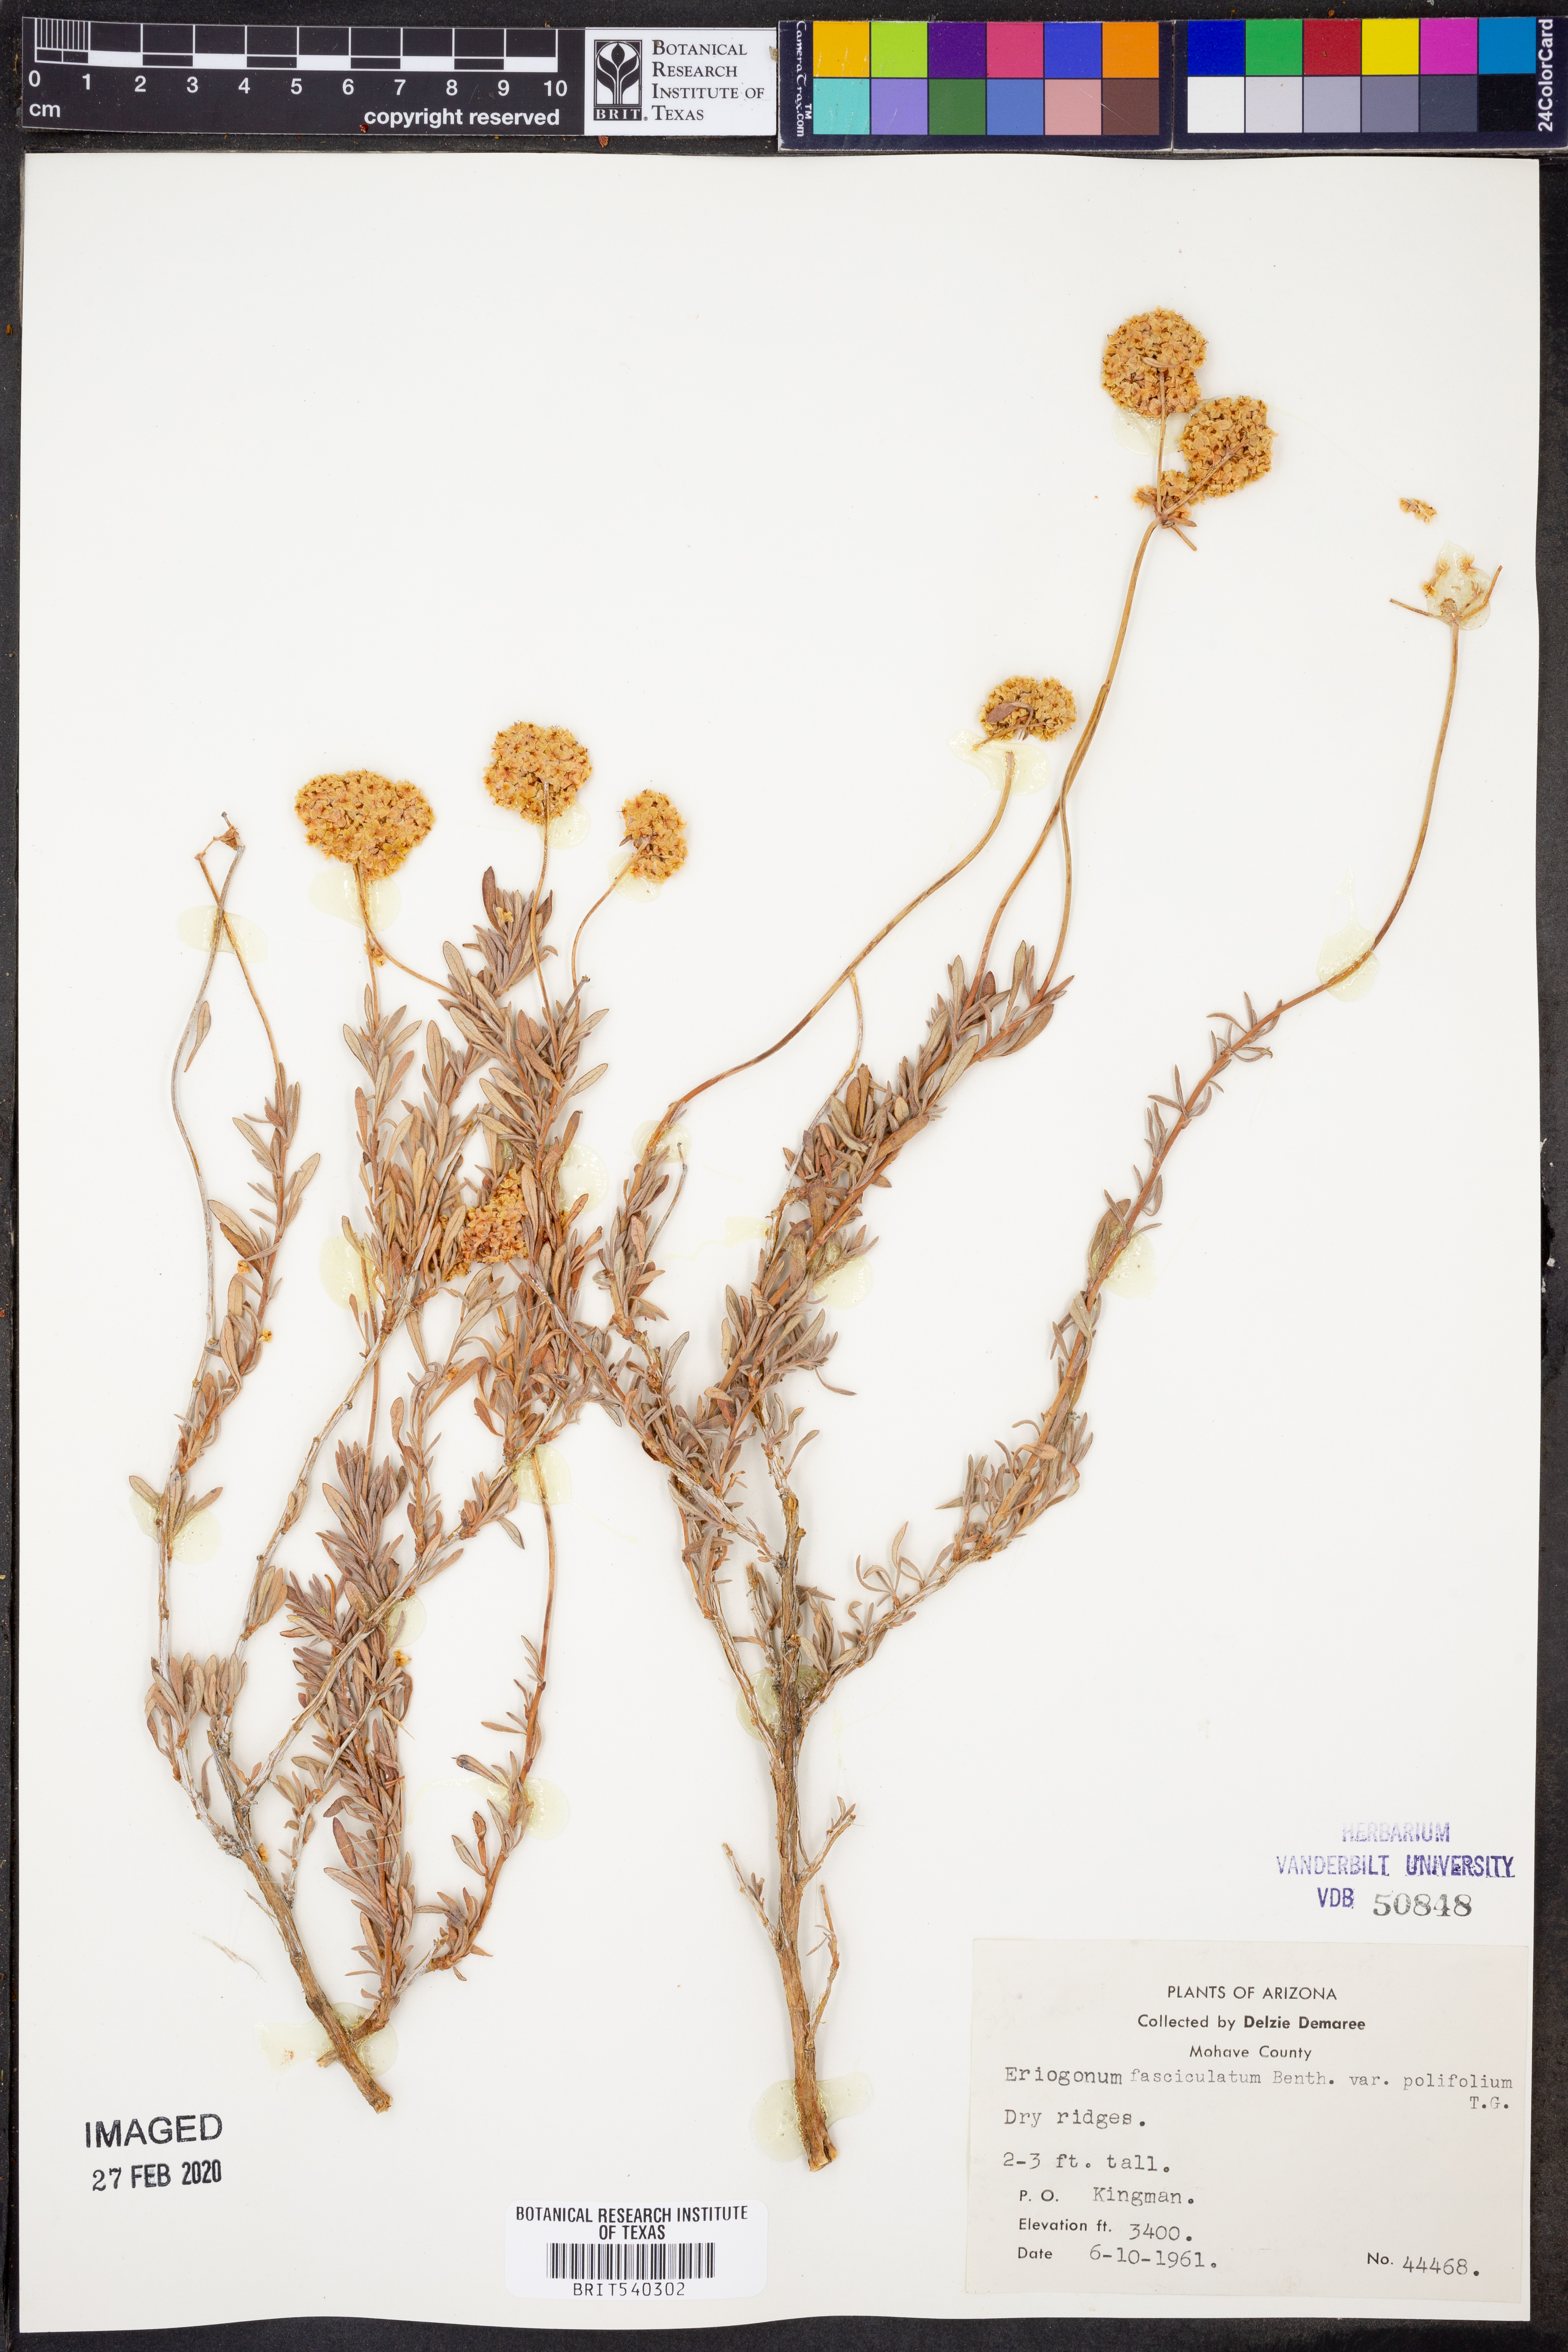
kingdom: Plantae
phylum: Tracheophyta
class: Magnoliopsida
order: Caryophyllales
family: Polygonaceae
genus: Eriogonum
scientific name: Eriogonum fasciculatum
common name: California wild buckwheat
